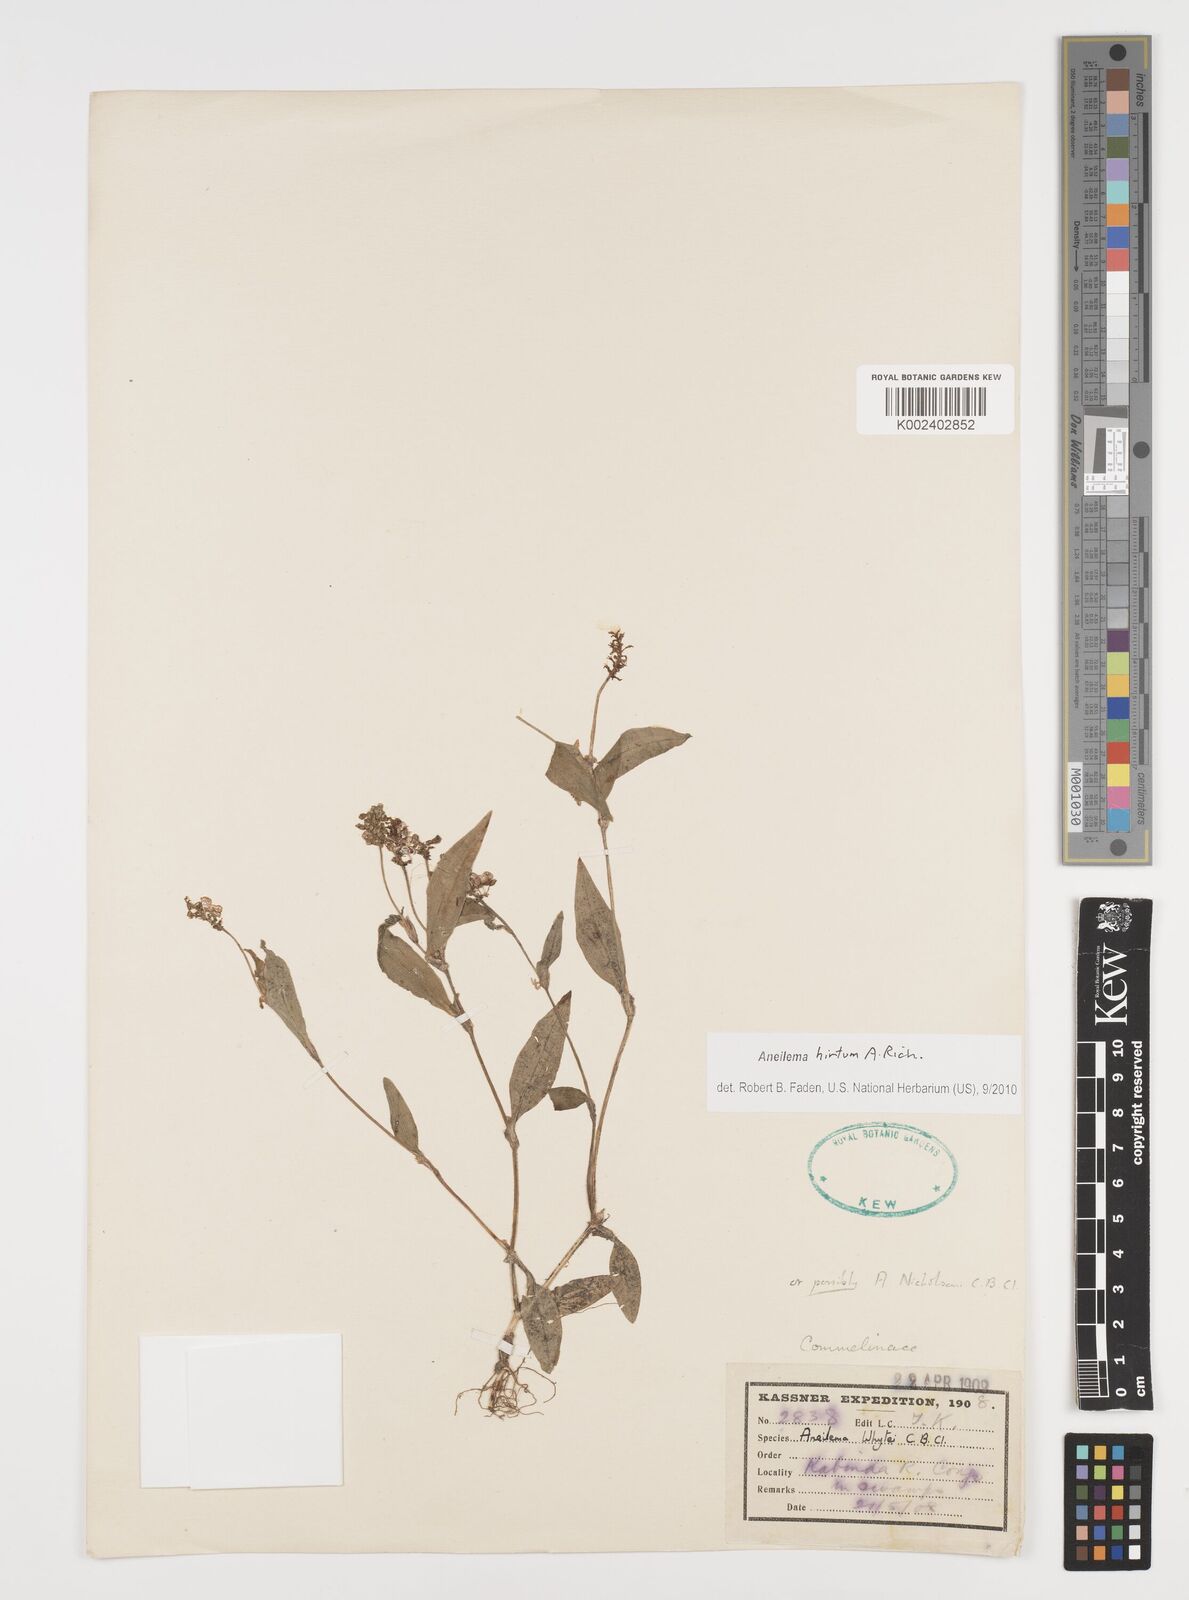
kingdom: Plantae
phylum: Tracheophyta
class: Liliopsida
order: Commelinales
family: Commelinaceae
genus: Aneilema
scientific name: Aneilema hirtum
